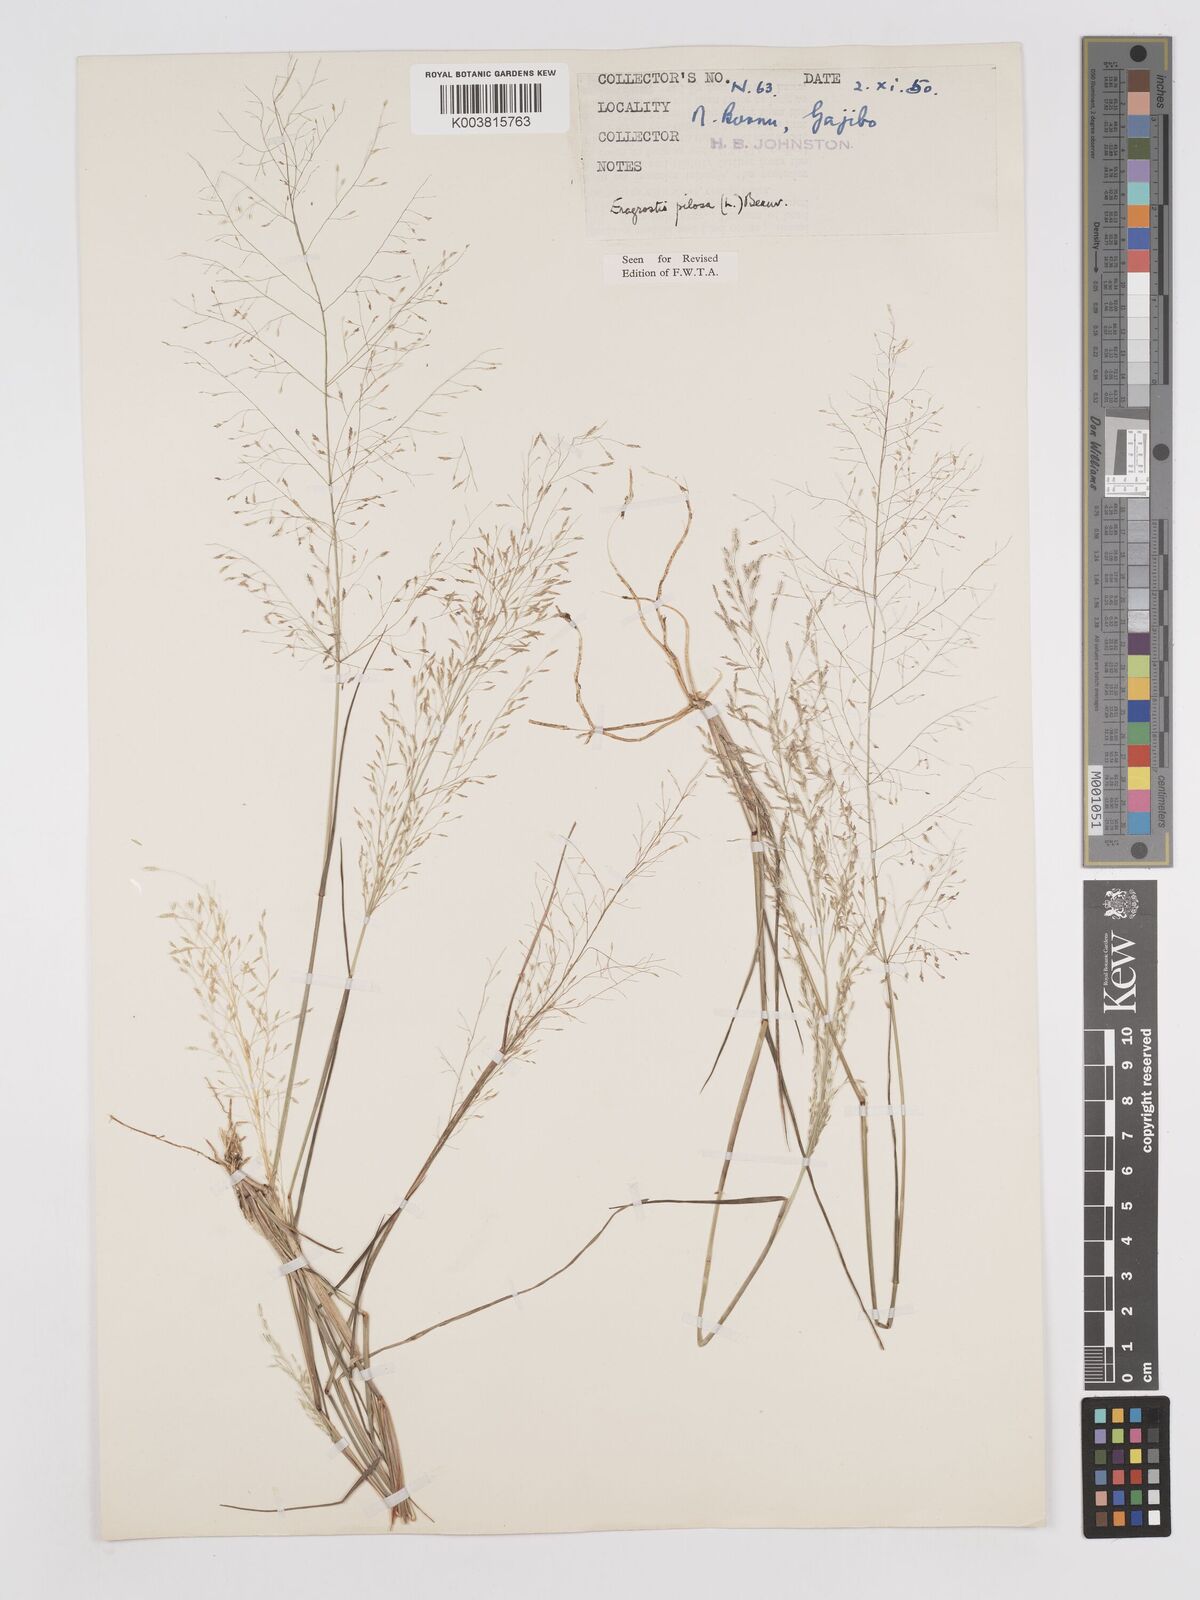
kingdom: Plantae
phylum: Tracheophyta
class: Liliopsida
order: Poales
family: Poaceae
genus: Eragrostis
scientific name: Eragrostis pilosa
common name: Indian lovegrass
